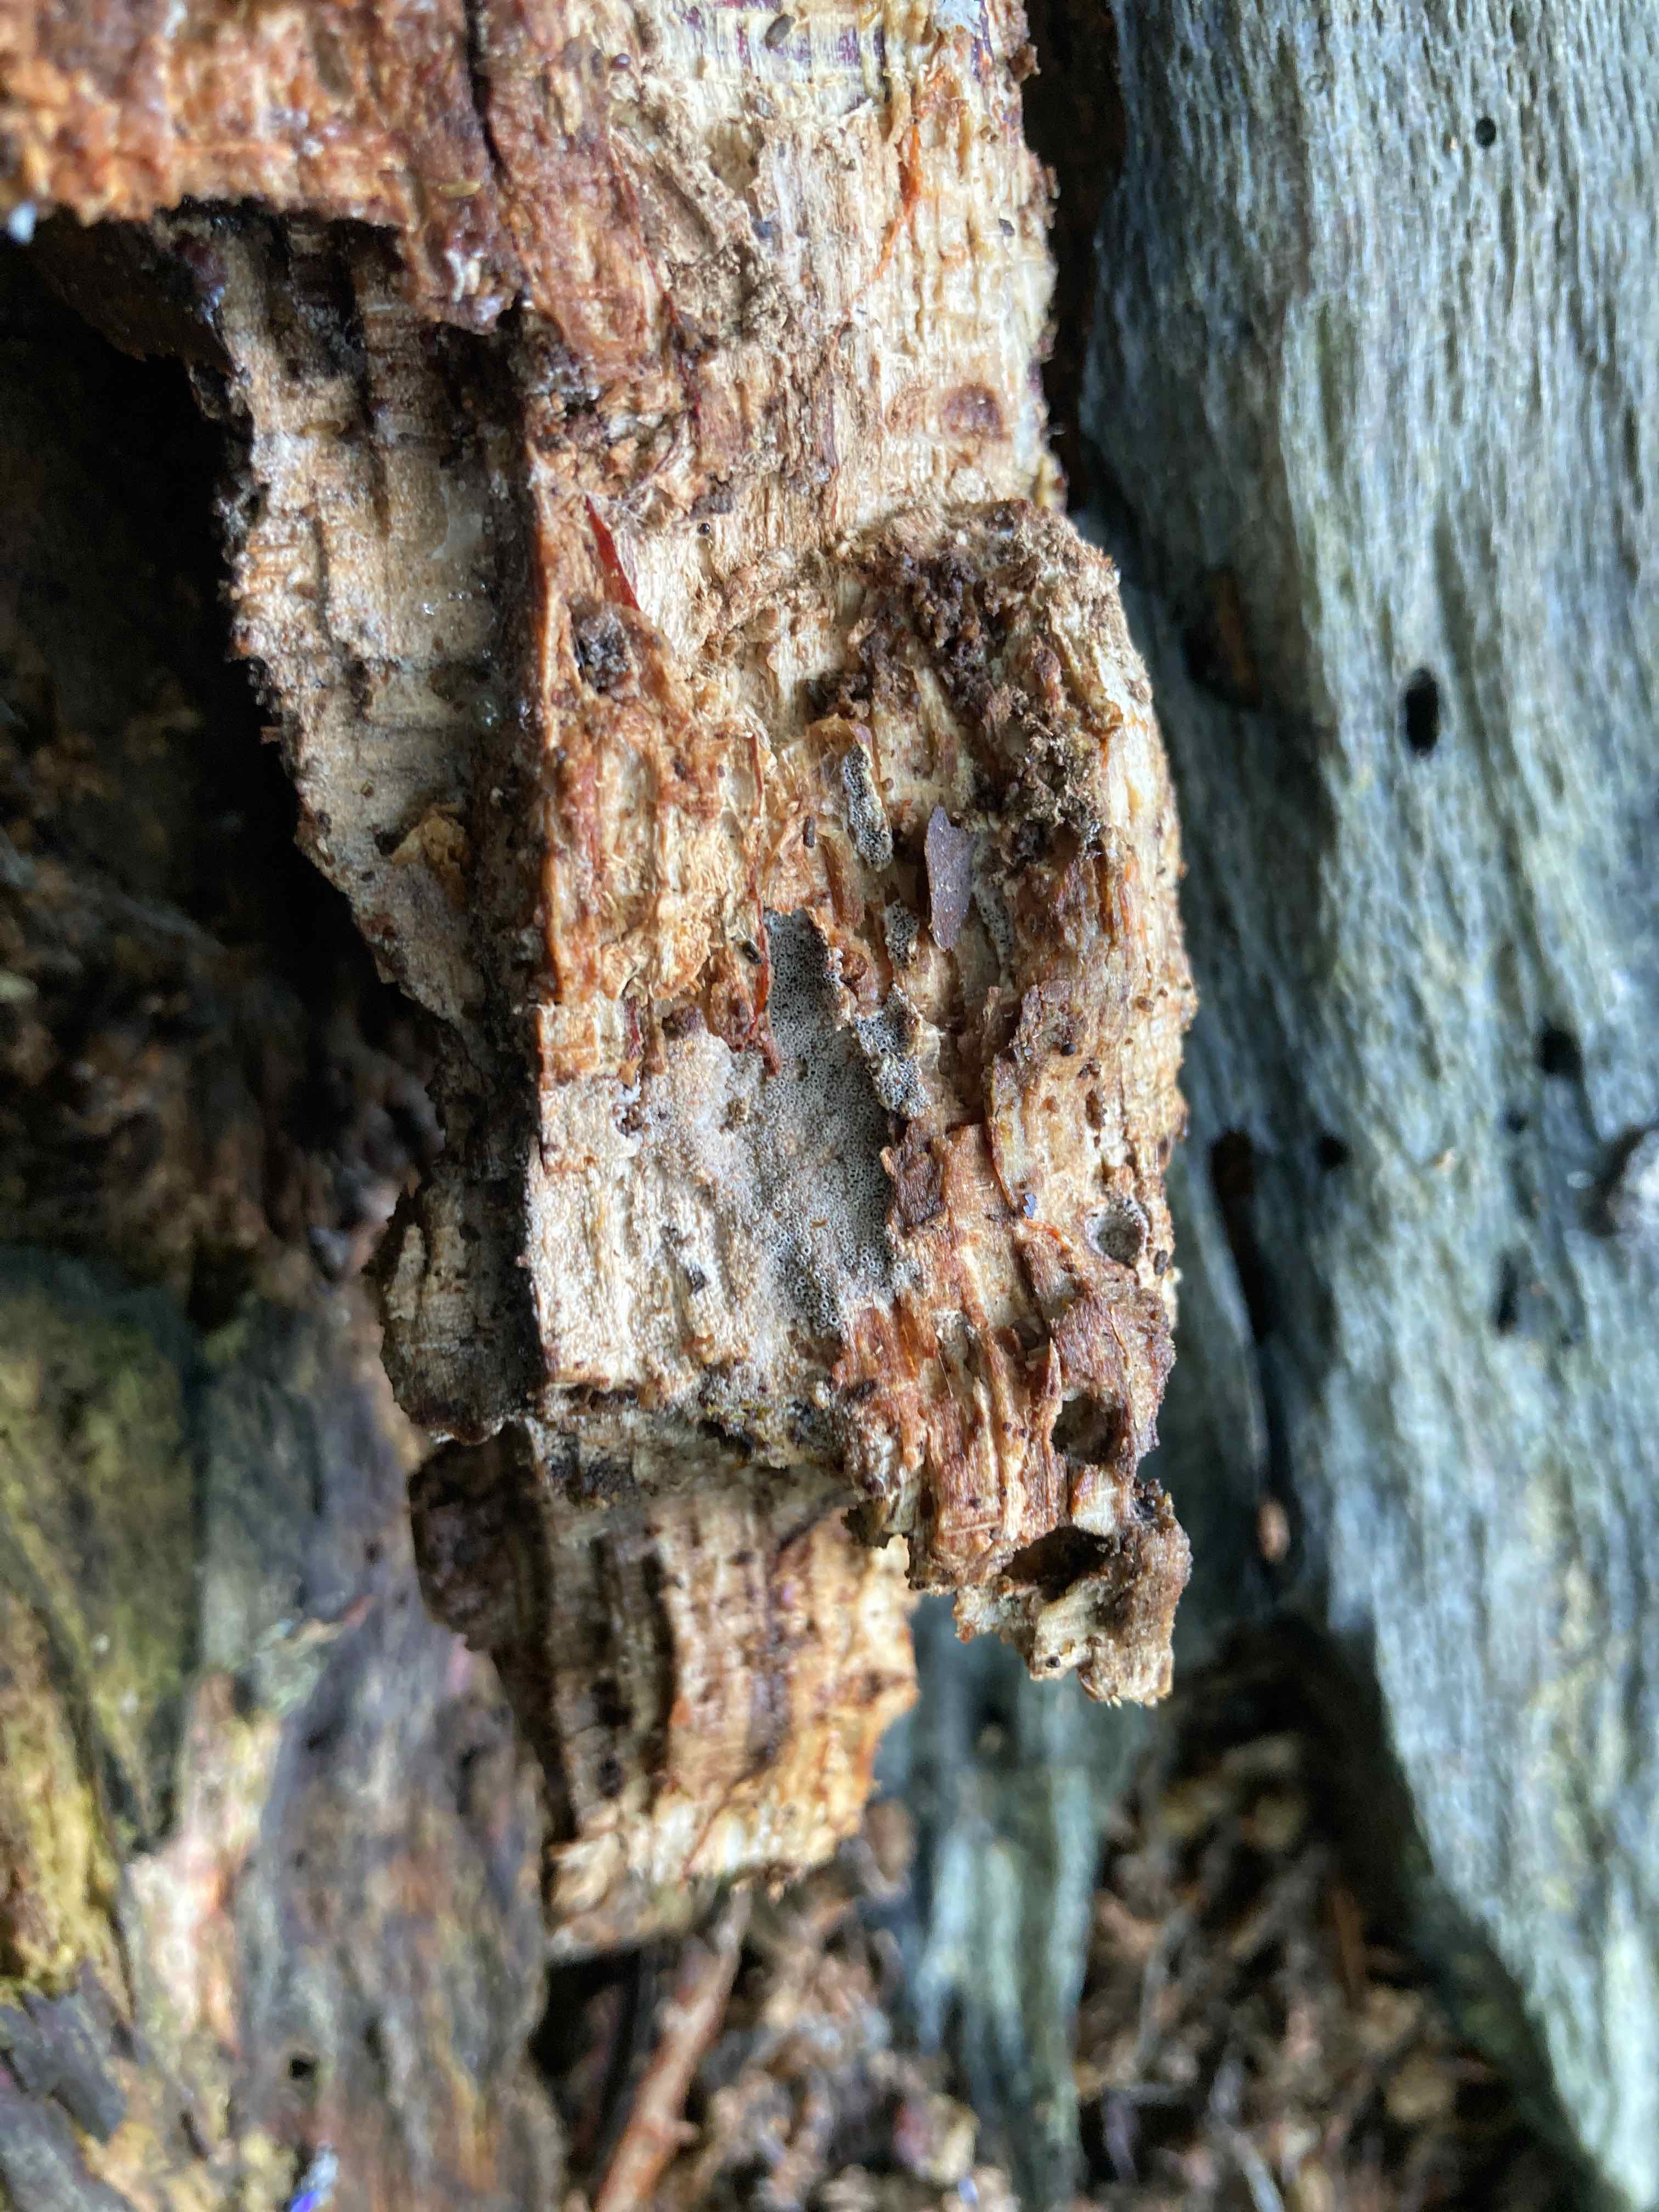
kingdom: Fungi
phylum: Basidiomycota
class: Agaricomycetes
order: Agaricales
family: Pleurotaceae
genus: Resupinatus
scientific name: Resupinatus poriaeformis
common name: tæpperør
